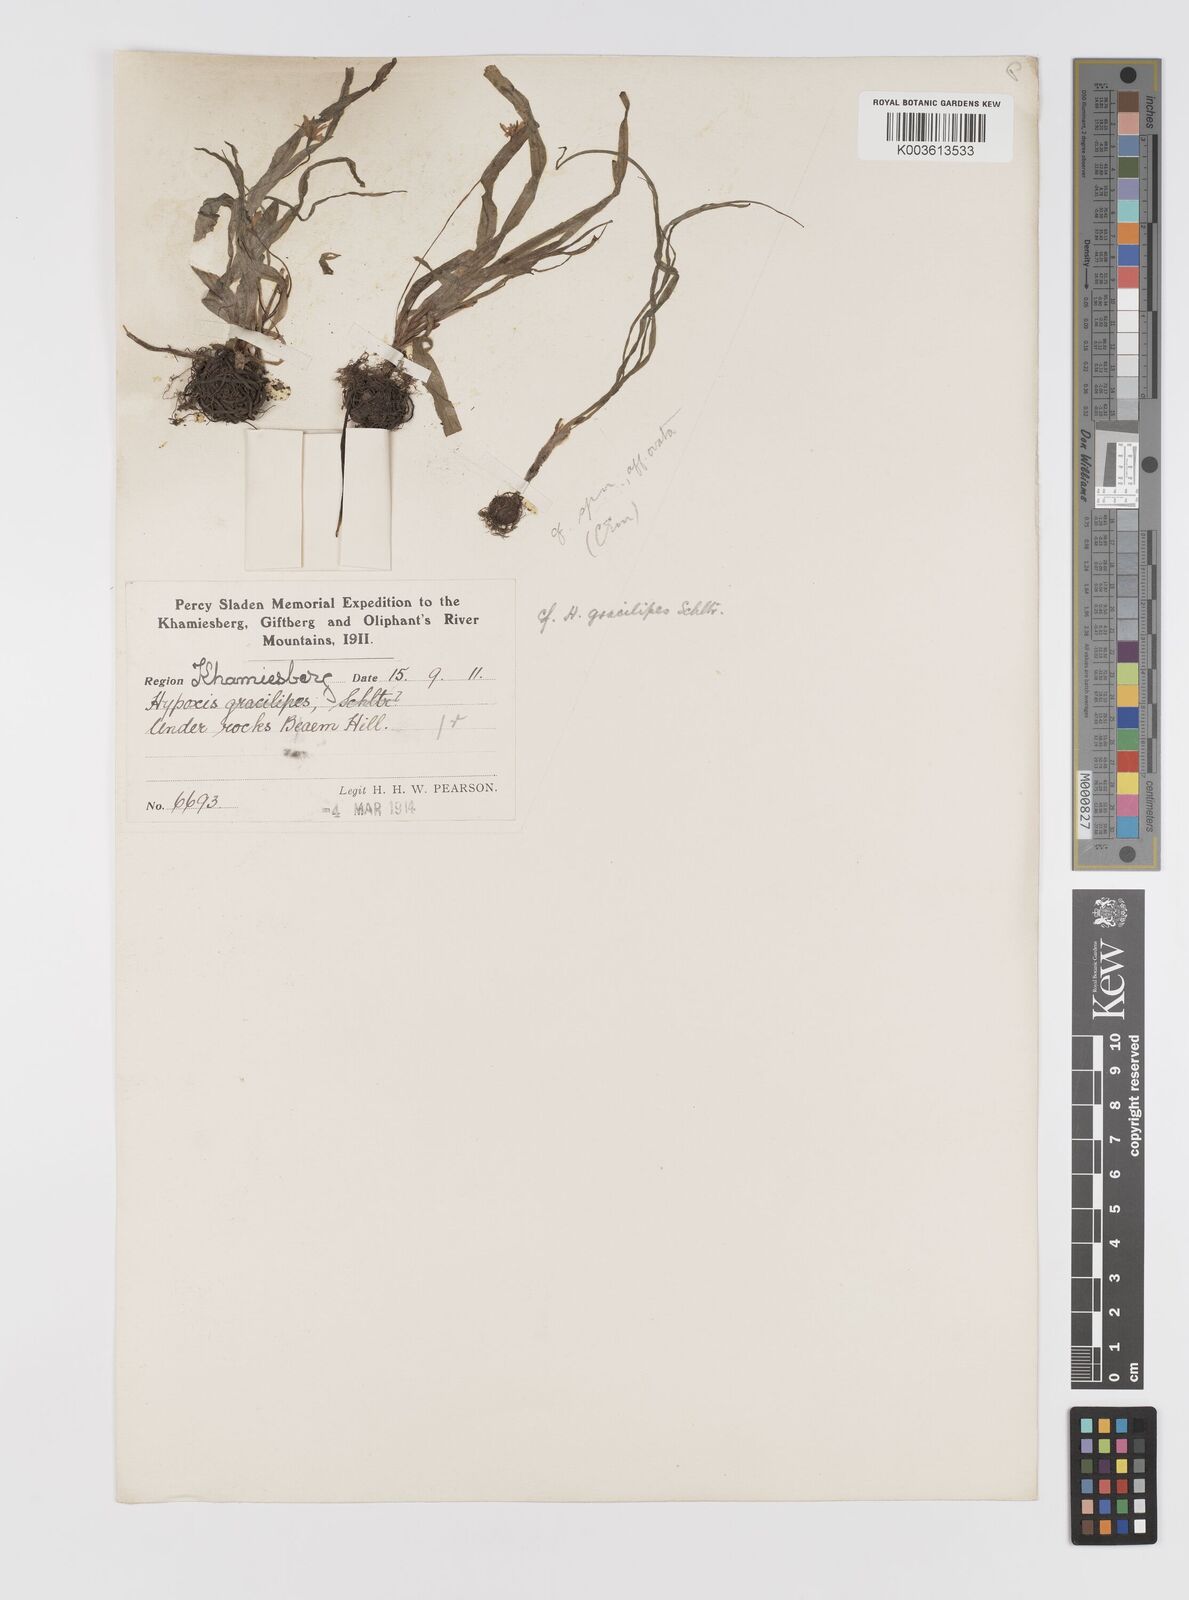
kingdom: Plantae
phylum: Tracheophyta
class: Liliopsida
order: Asparagales
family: Hypoxidaceae
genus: Pauridia
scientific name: Pauridia gracilipes
